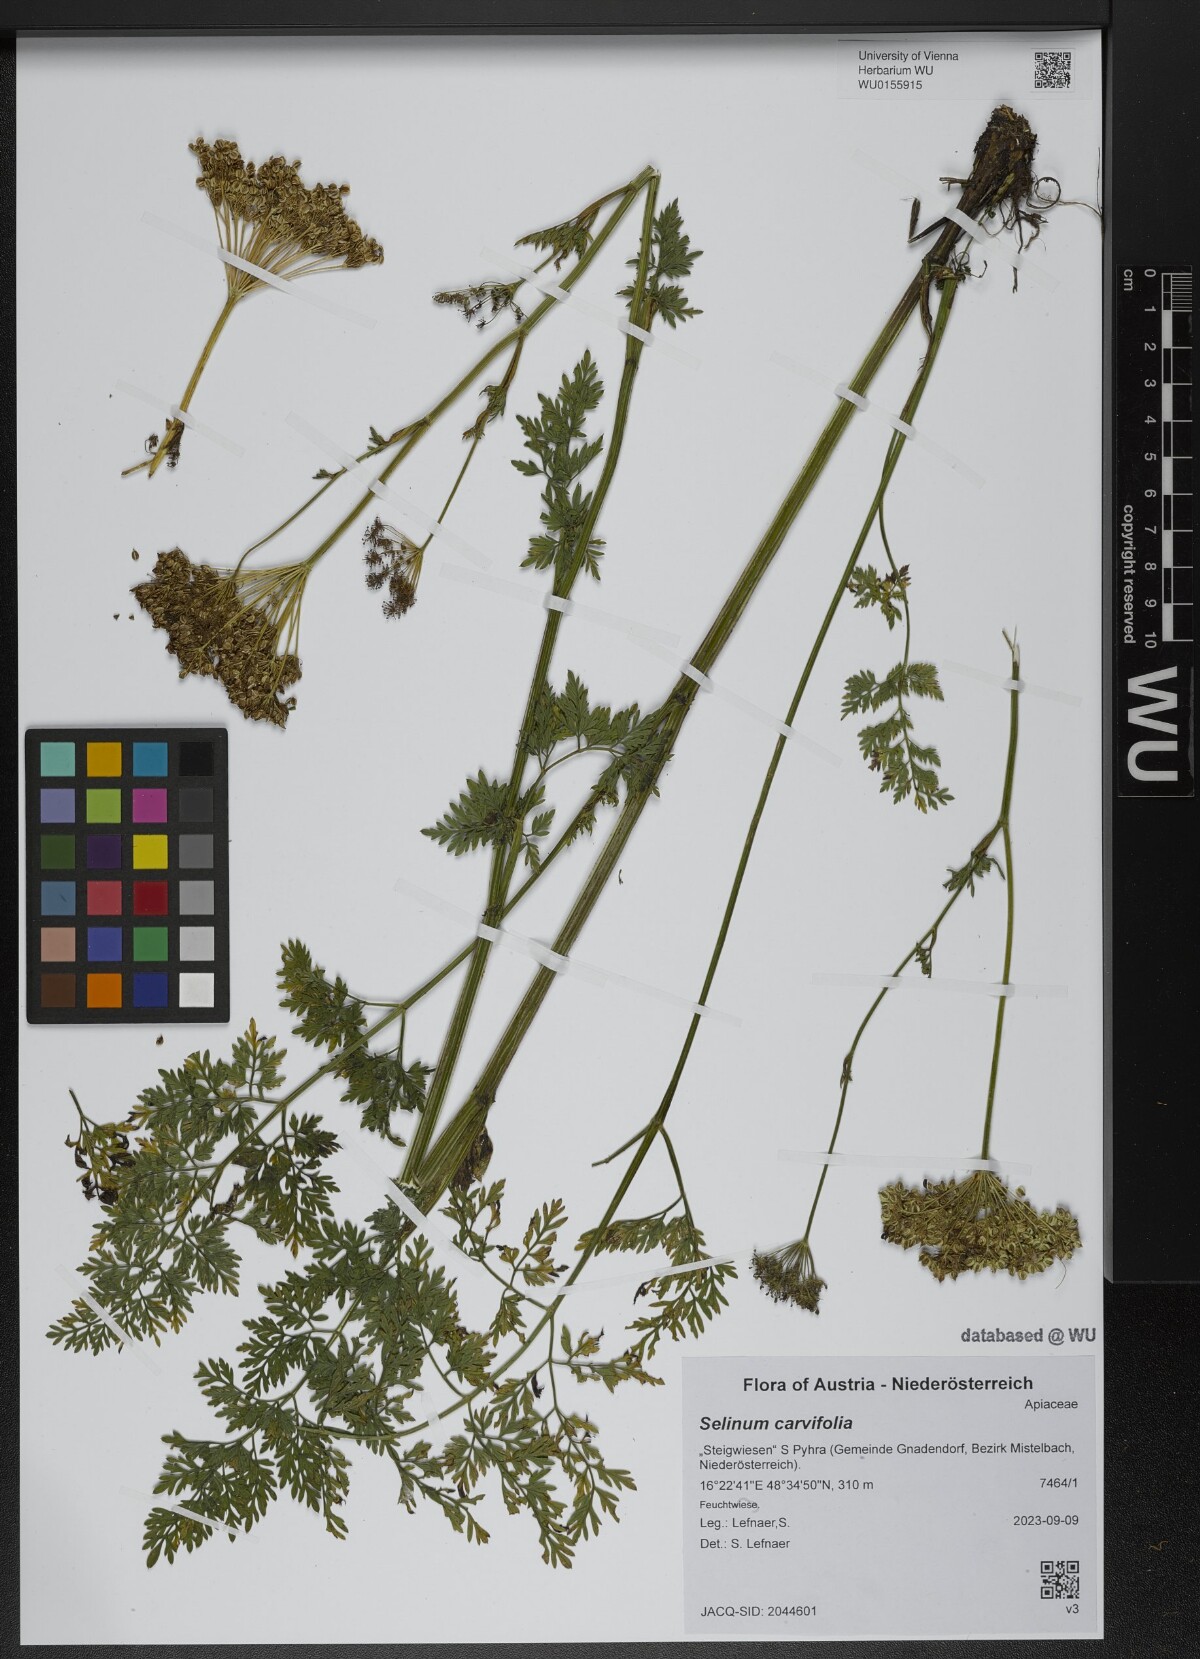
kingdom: Plantae
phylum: Tracheophyta
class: Magnoliopsida
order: Apiales
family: Apiaceae
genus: Selinum
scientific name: Selinum carvifolia
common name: Cambridge milk-parsley
